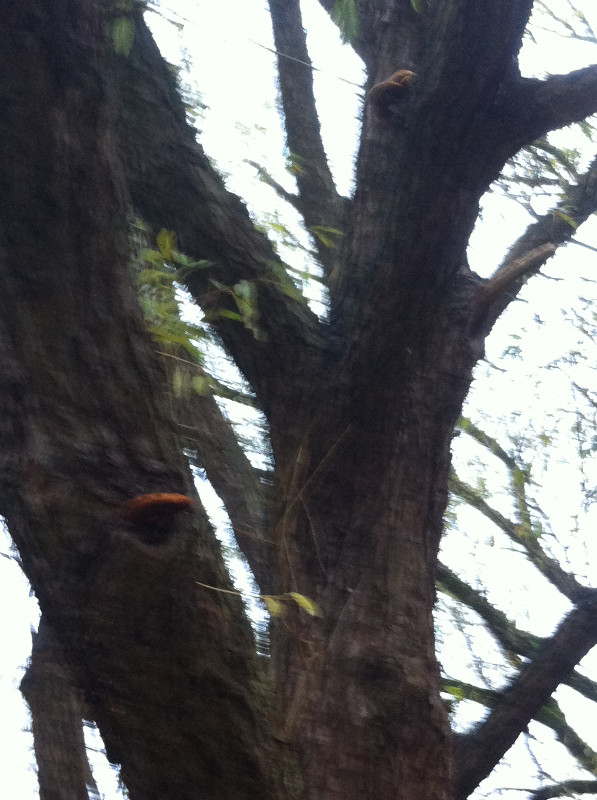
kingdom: Fungi
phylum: Basidiomycota
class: Agaricomycetes
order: Agaricales
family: Strophariaceae
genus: Pholiota
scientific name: Pholiota limonella
